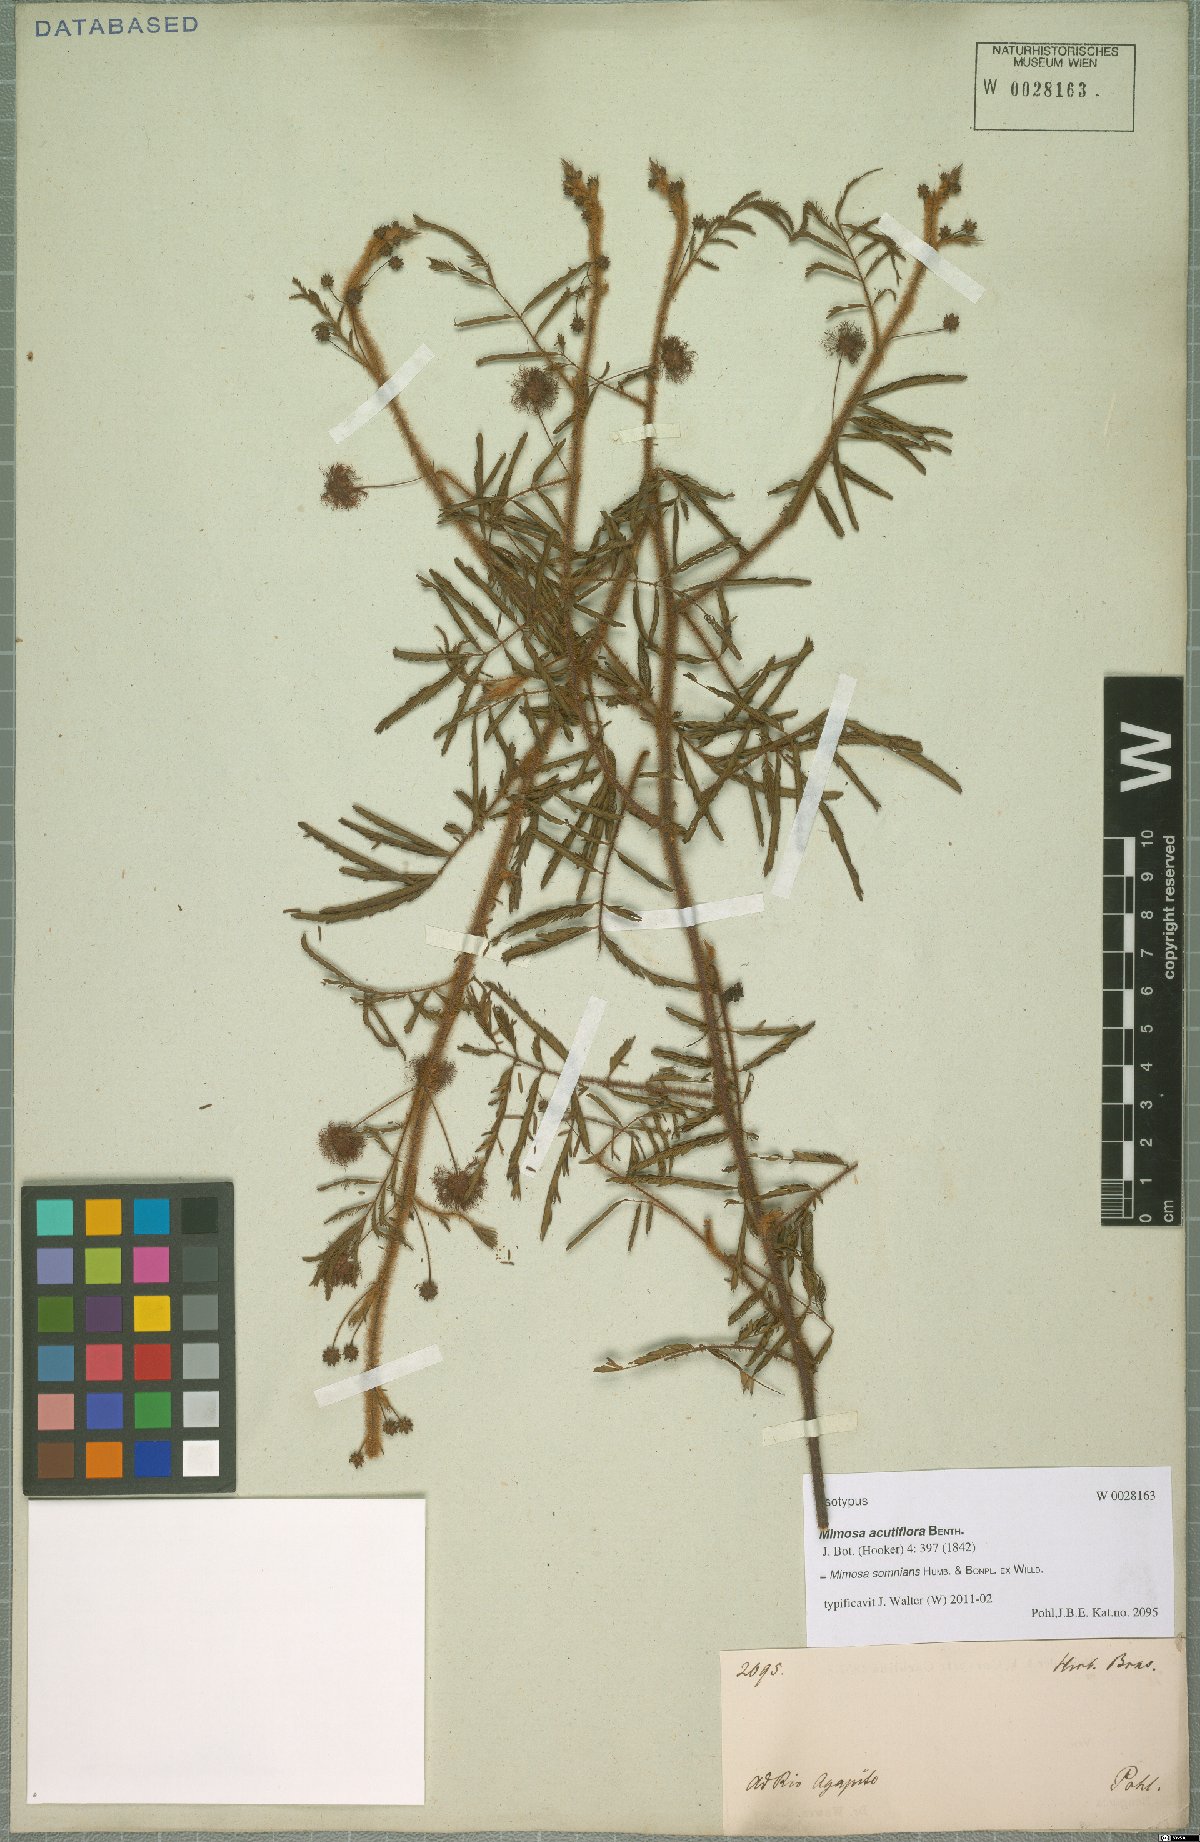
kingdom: Plantae
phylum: Tracheophyta
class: Magnoliopsida
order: Fabales
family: Fabaceae
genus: Mimosa
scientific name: Mimosa somnians
